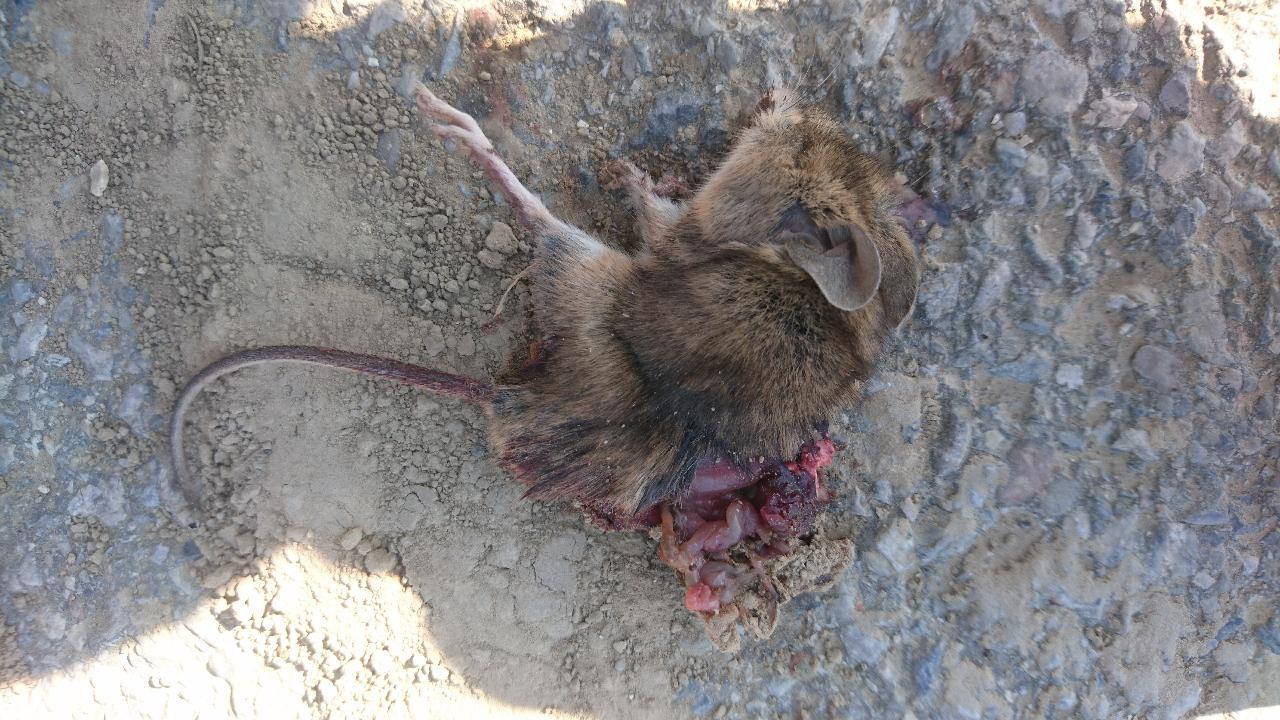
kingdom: Animalia
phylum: Chordata
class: Mammalia
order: Rodentia
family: Muridae
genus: Apodemus
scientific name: Apodemus
